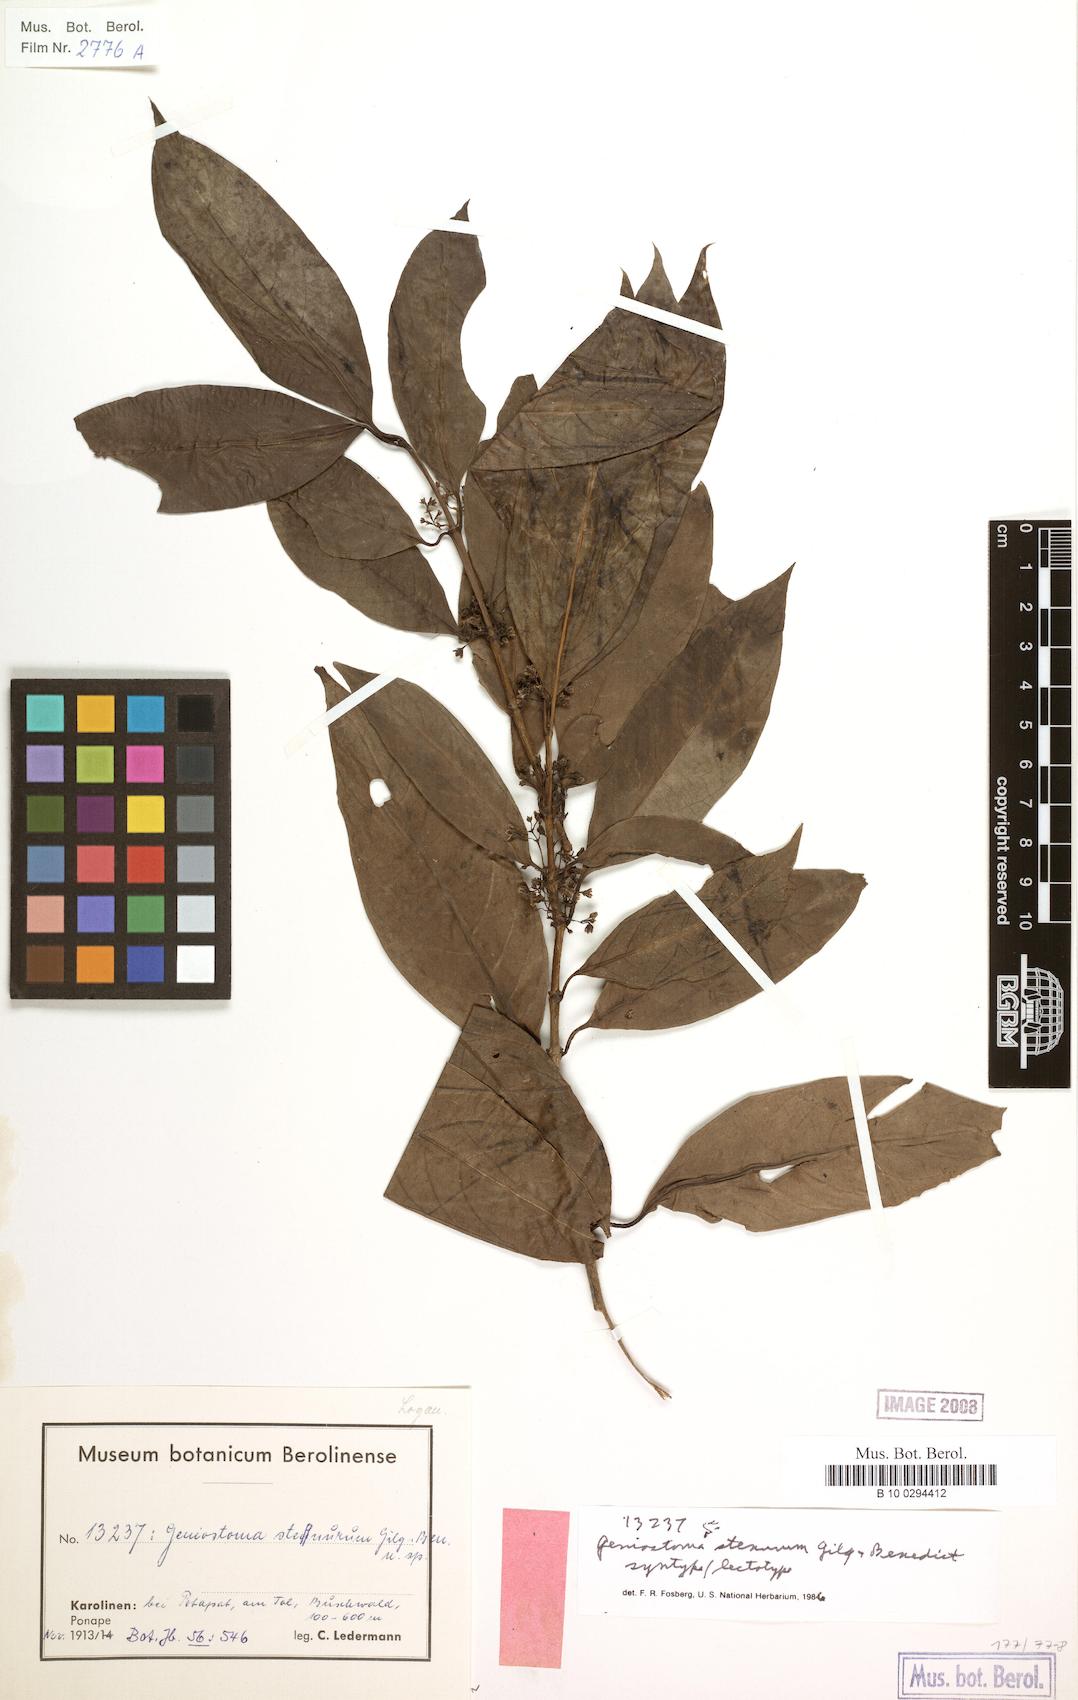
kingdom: Plantae
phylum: Tracheophyta
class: Magnoliopsida
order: Gentianales
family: Loganiaceae
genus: Geniostoma
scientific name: Geniostoma rupestre
